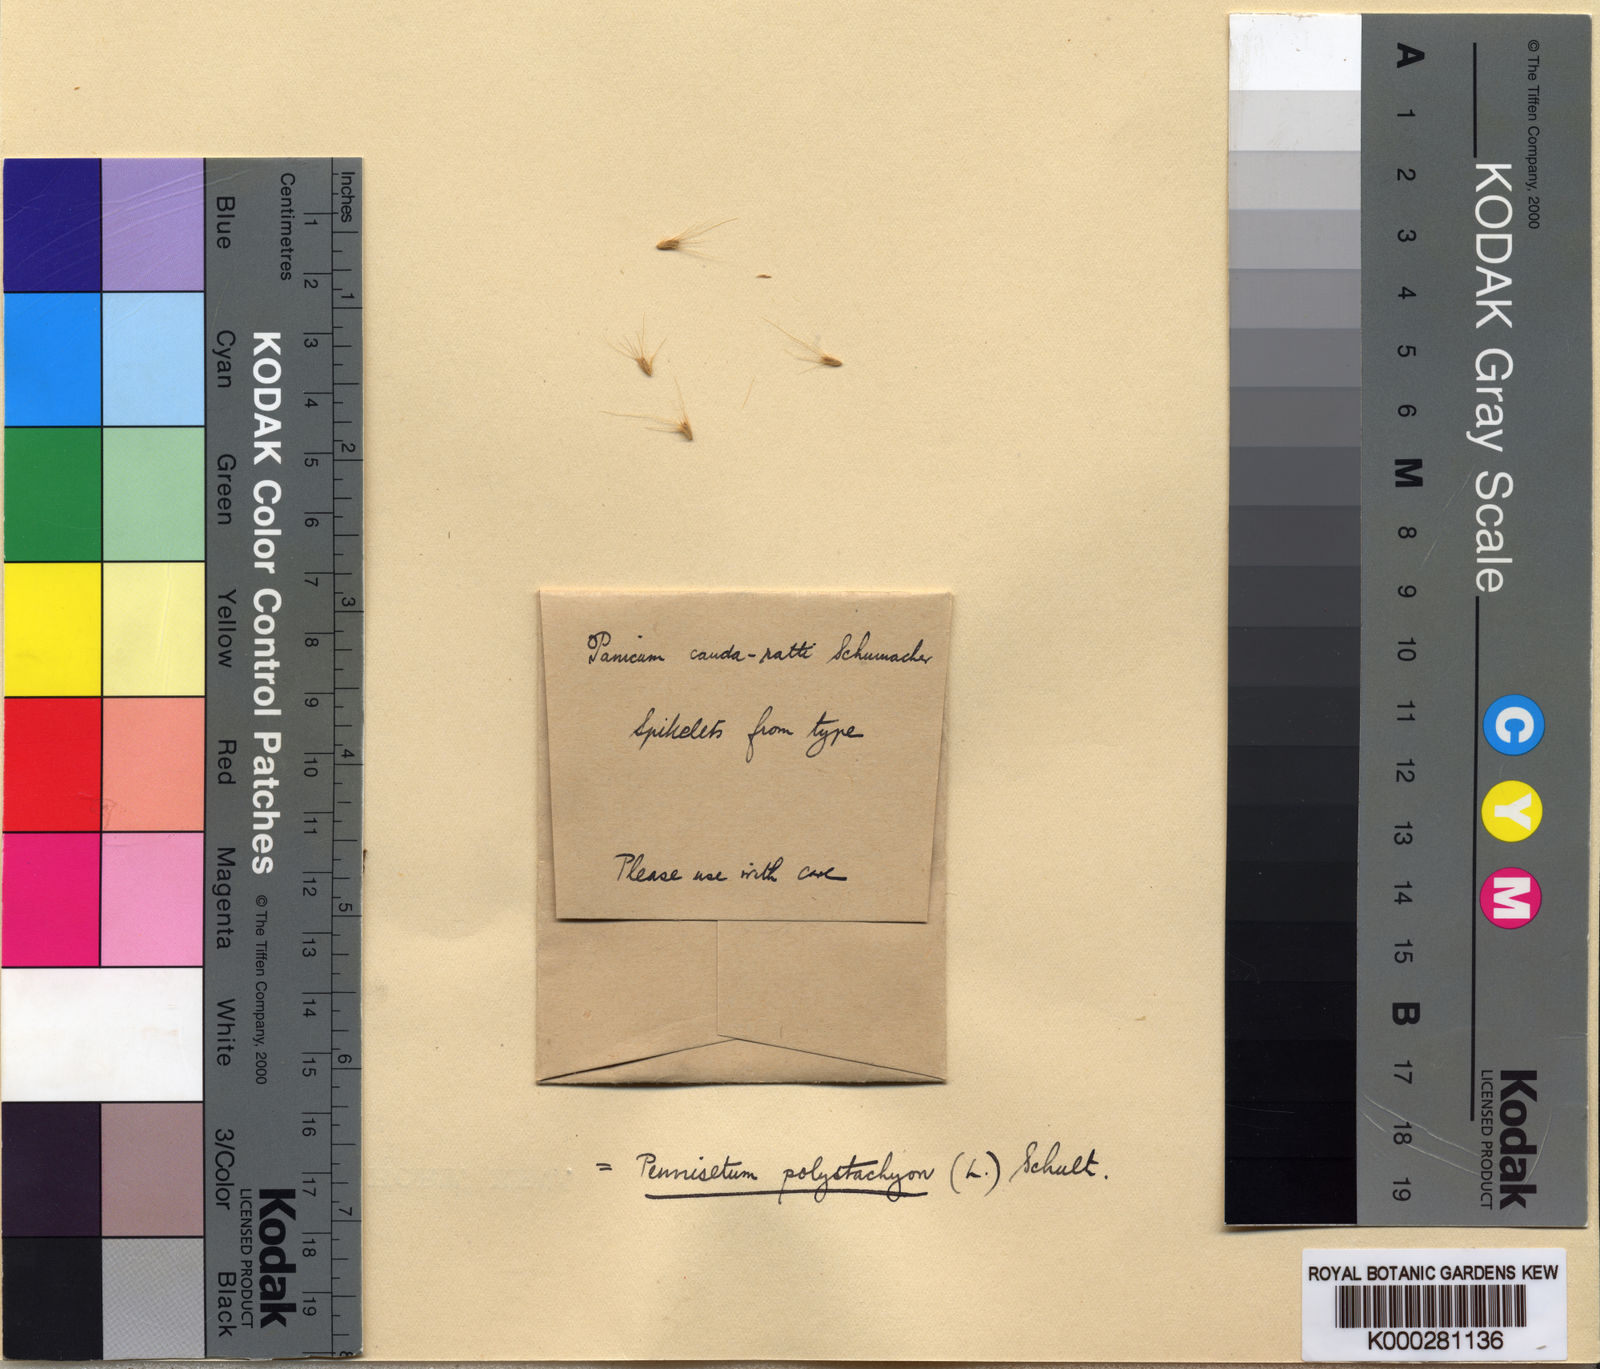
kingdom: Plantae
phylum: Tracheophyta
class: Liliopsida
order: Poales
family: Poaceae
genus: Setaria
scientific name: Setaria parviflora
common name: Knotroot bristle-grass
